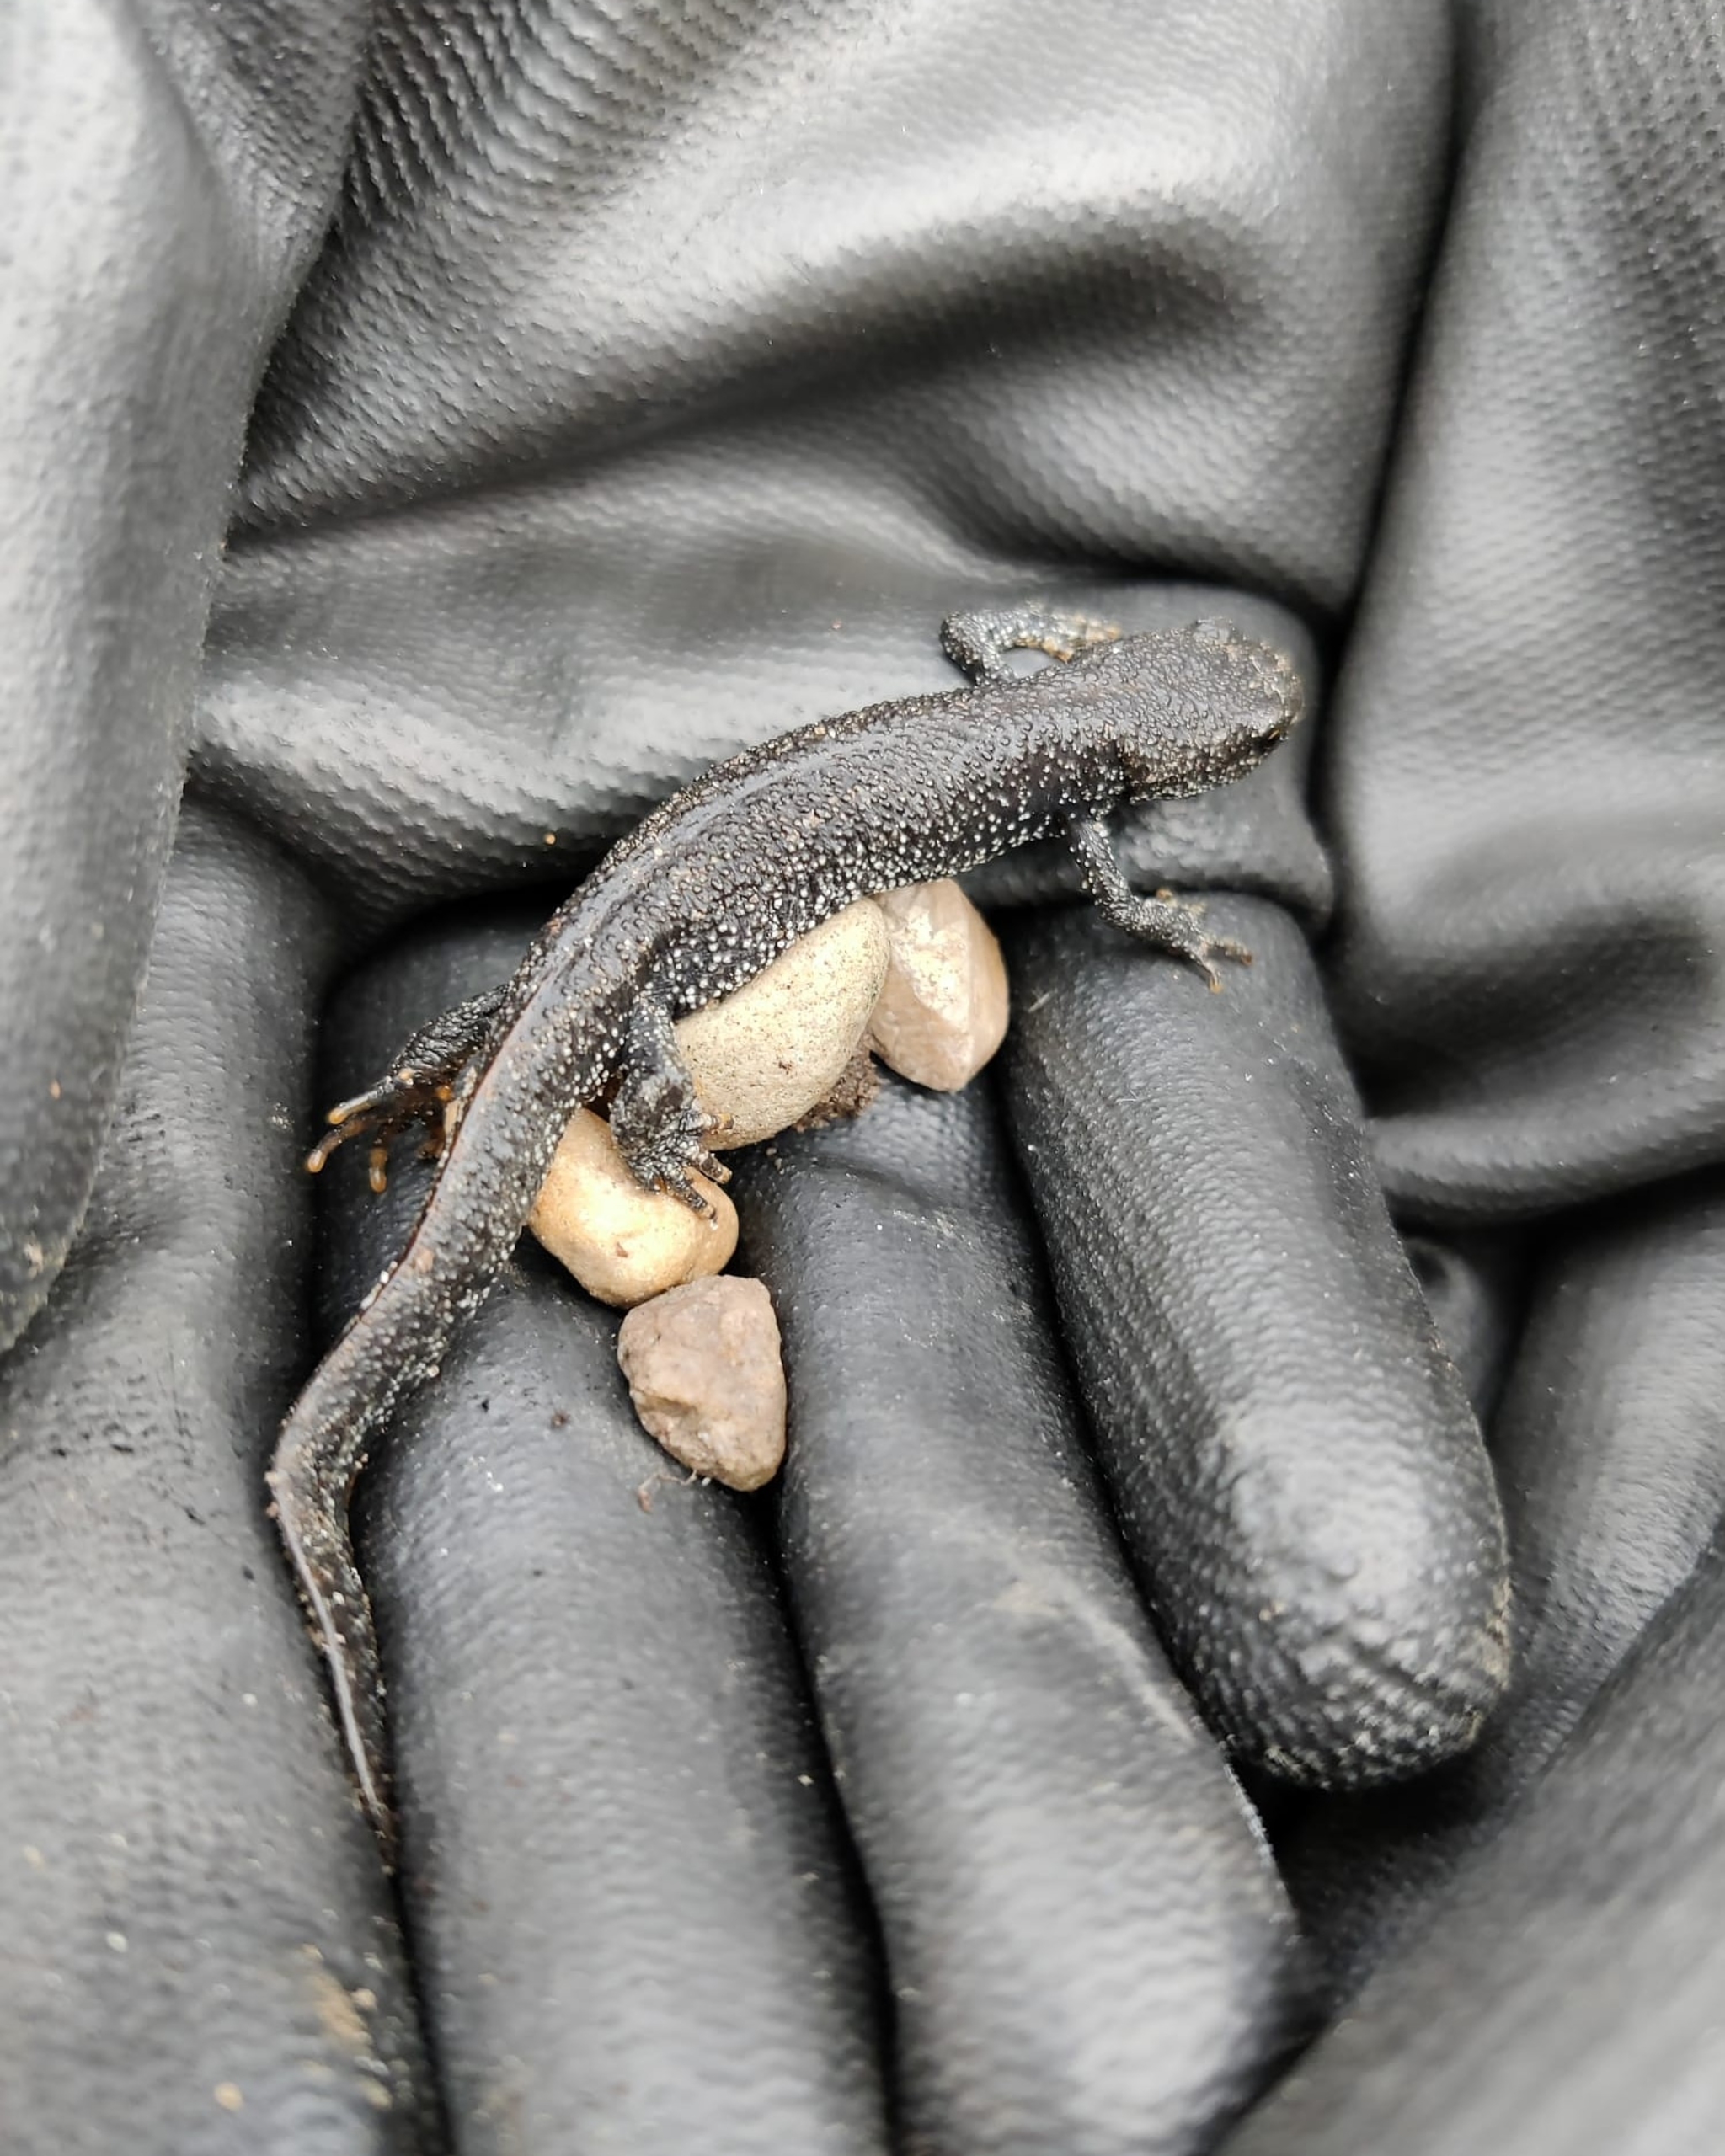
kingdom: Animalia
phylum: Chordata
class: Amphibia
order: Caudata
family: Salamandridae
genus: Triturus
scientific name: Triturus cristatus
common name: Stor vandsalamander
